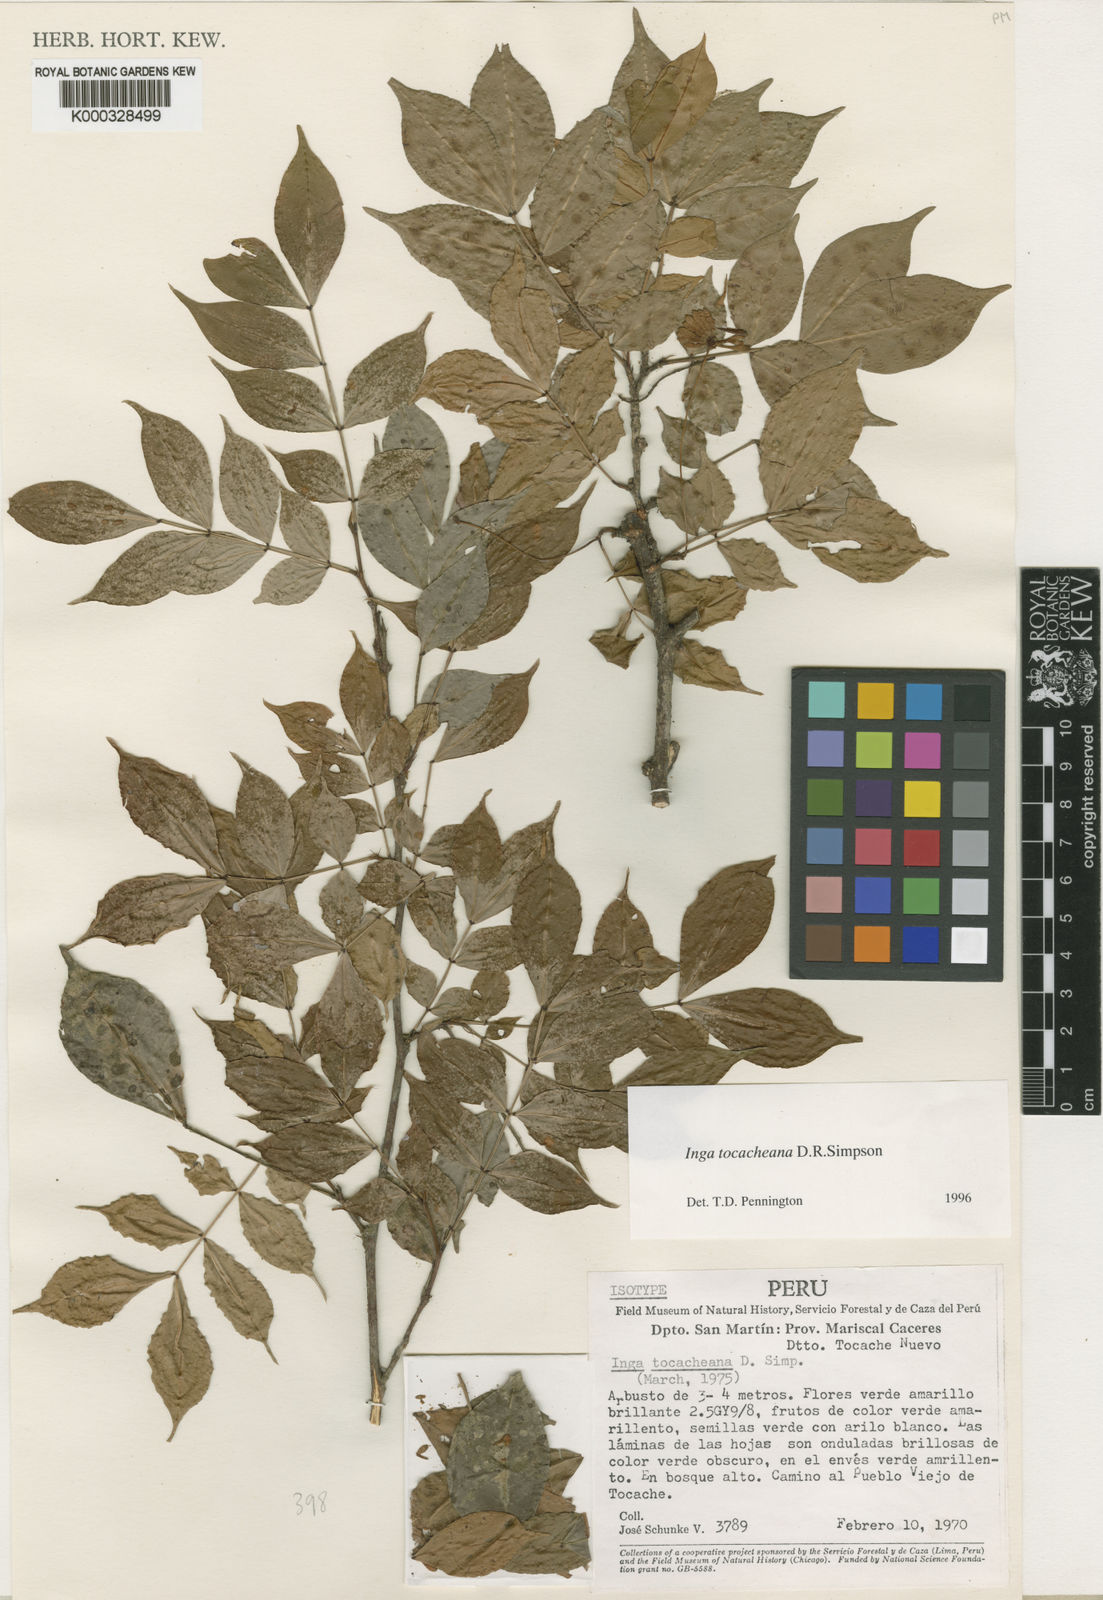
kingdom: Plantae
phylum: Tracheophyta
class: Magnoliopsida
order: Fabales
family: Fabaceae
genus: Inga
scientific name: Inga tocacheana
